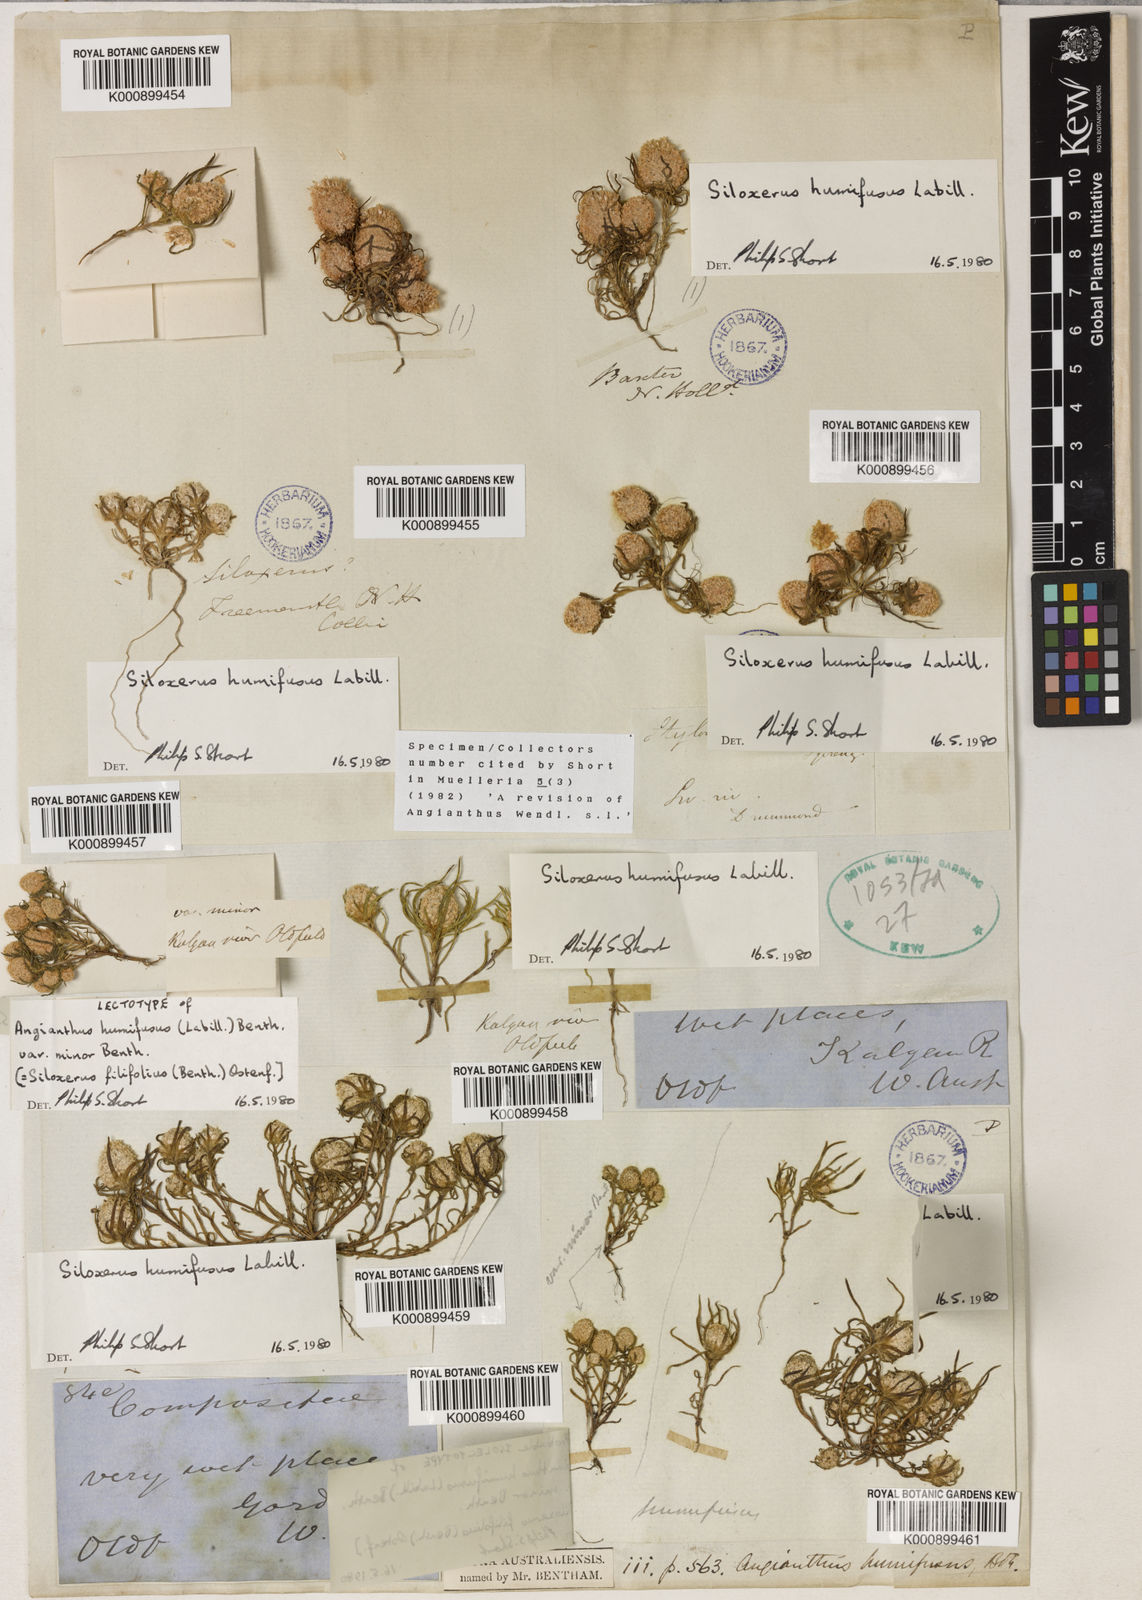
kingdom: Plantae
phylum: Tracheophyta
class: Magnoliopsida
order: Asterales
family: Asteraceae
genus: Siloxerus
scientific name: Siloxerus filifolius
